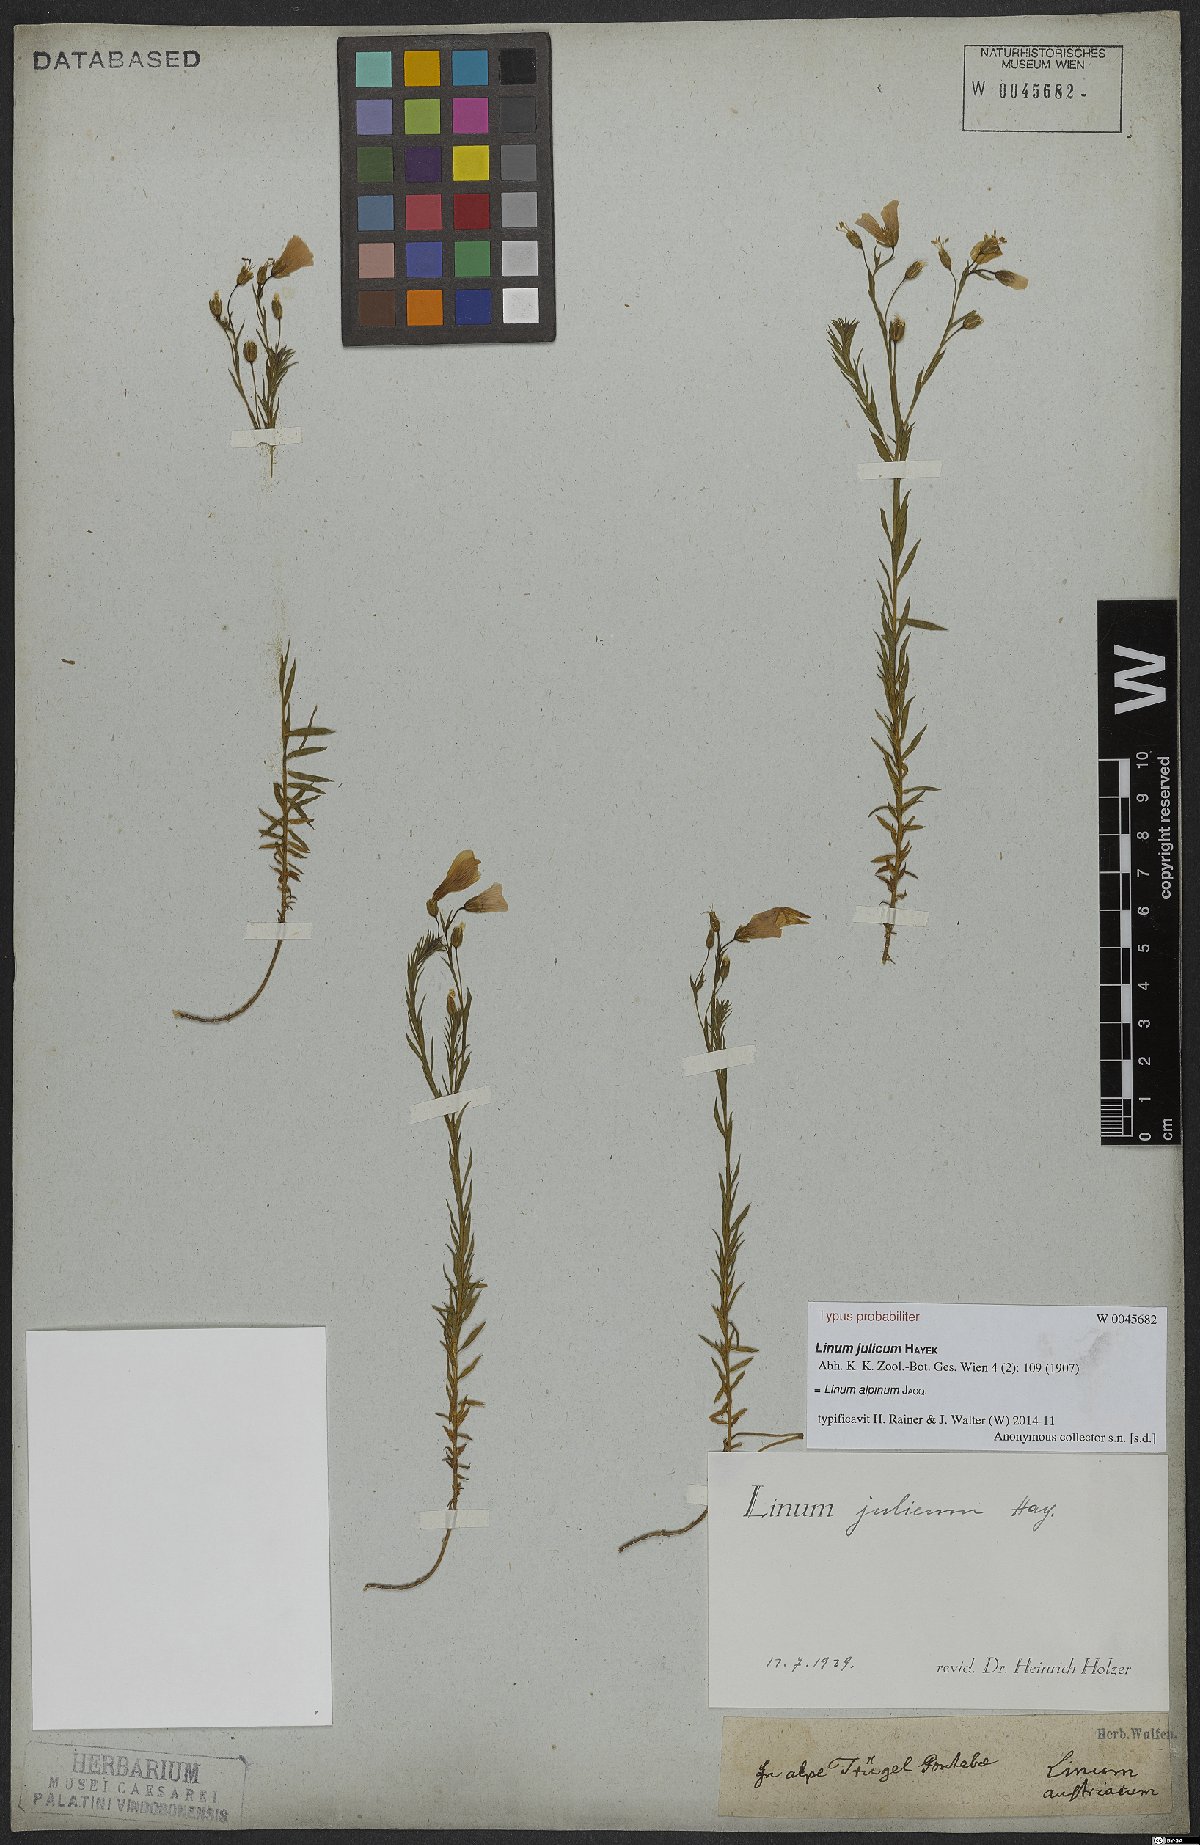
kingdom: Plantae
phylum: Tracheophyta
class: Magnoliopsida
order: Malpighiales
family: Linaceae
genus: Linum
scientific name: Linum alpinum
